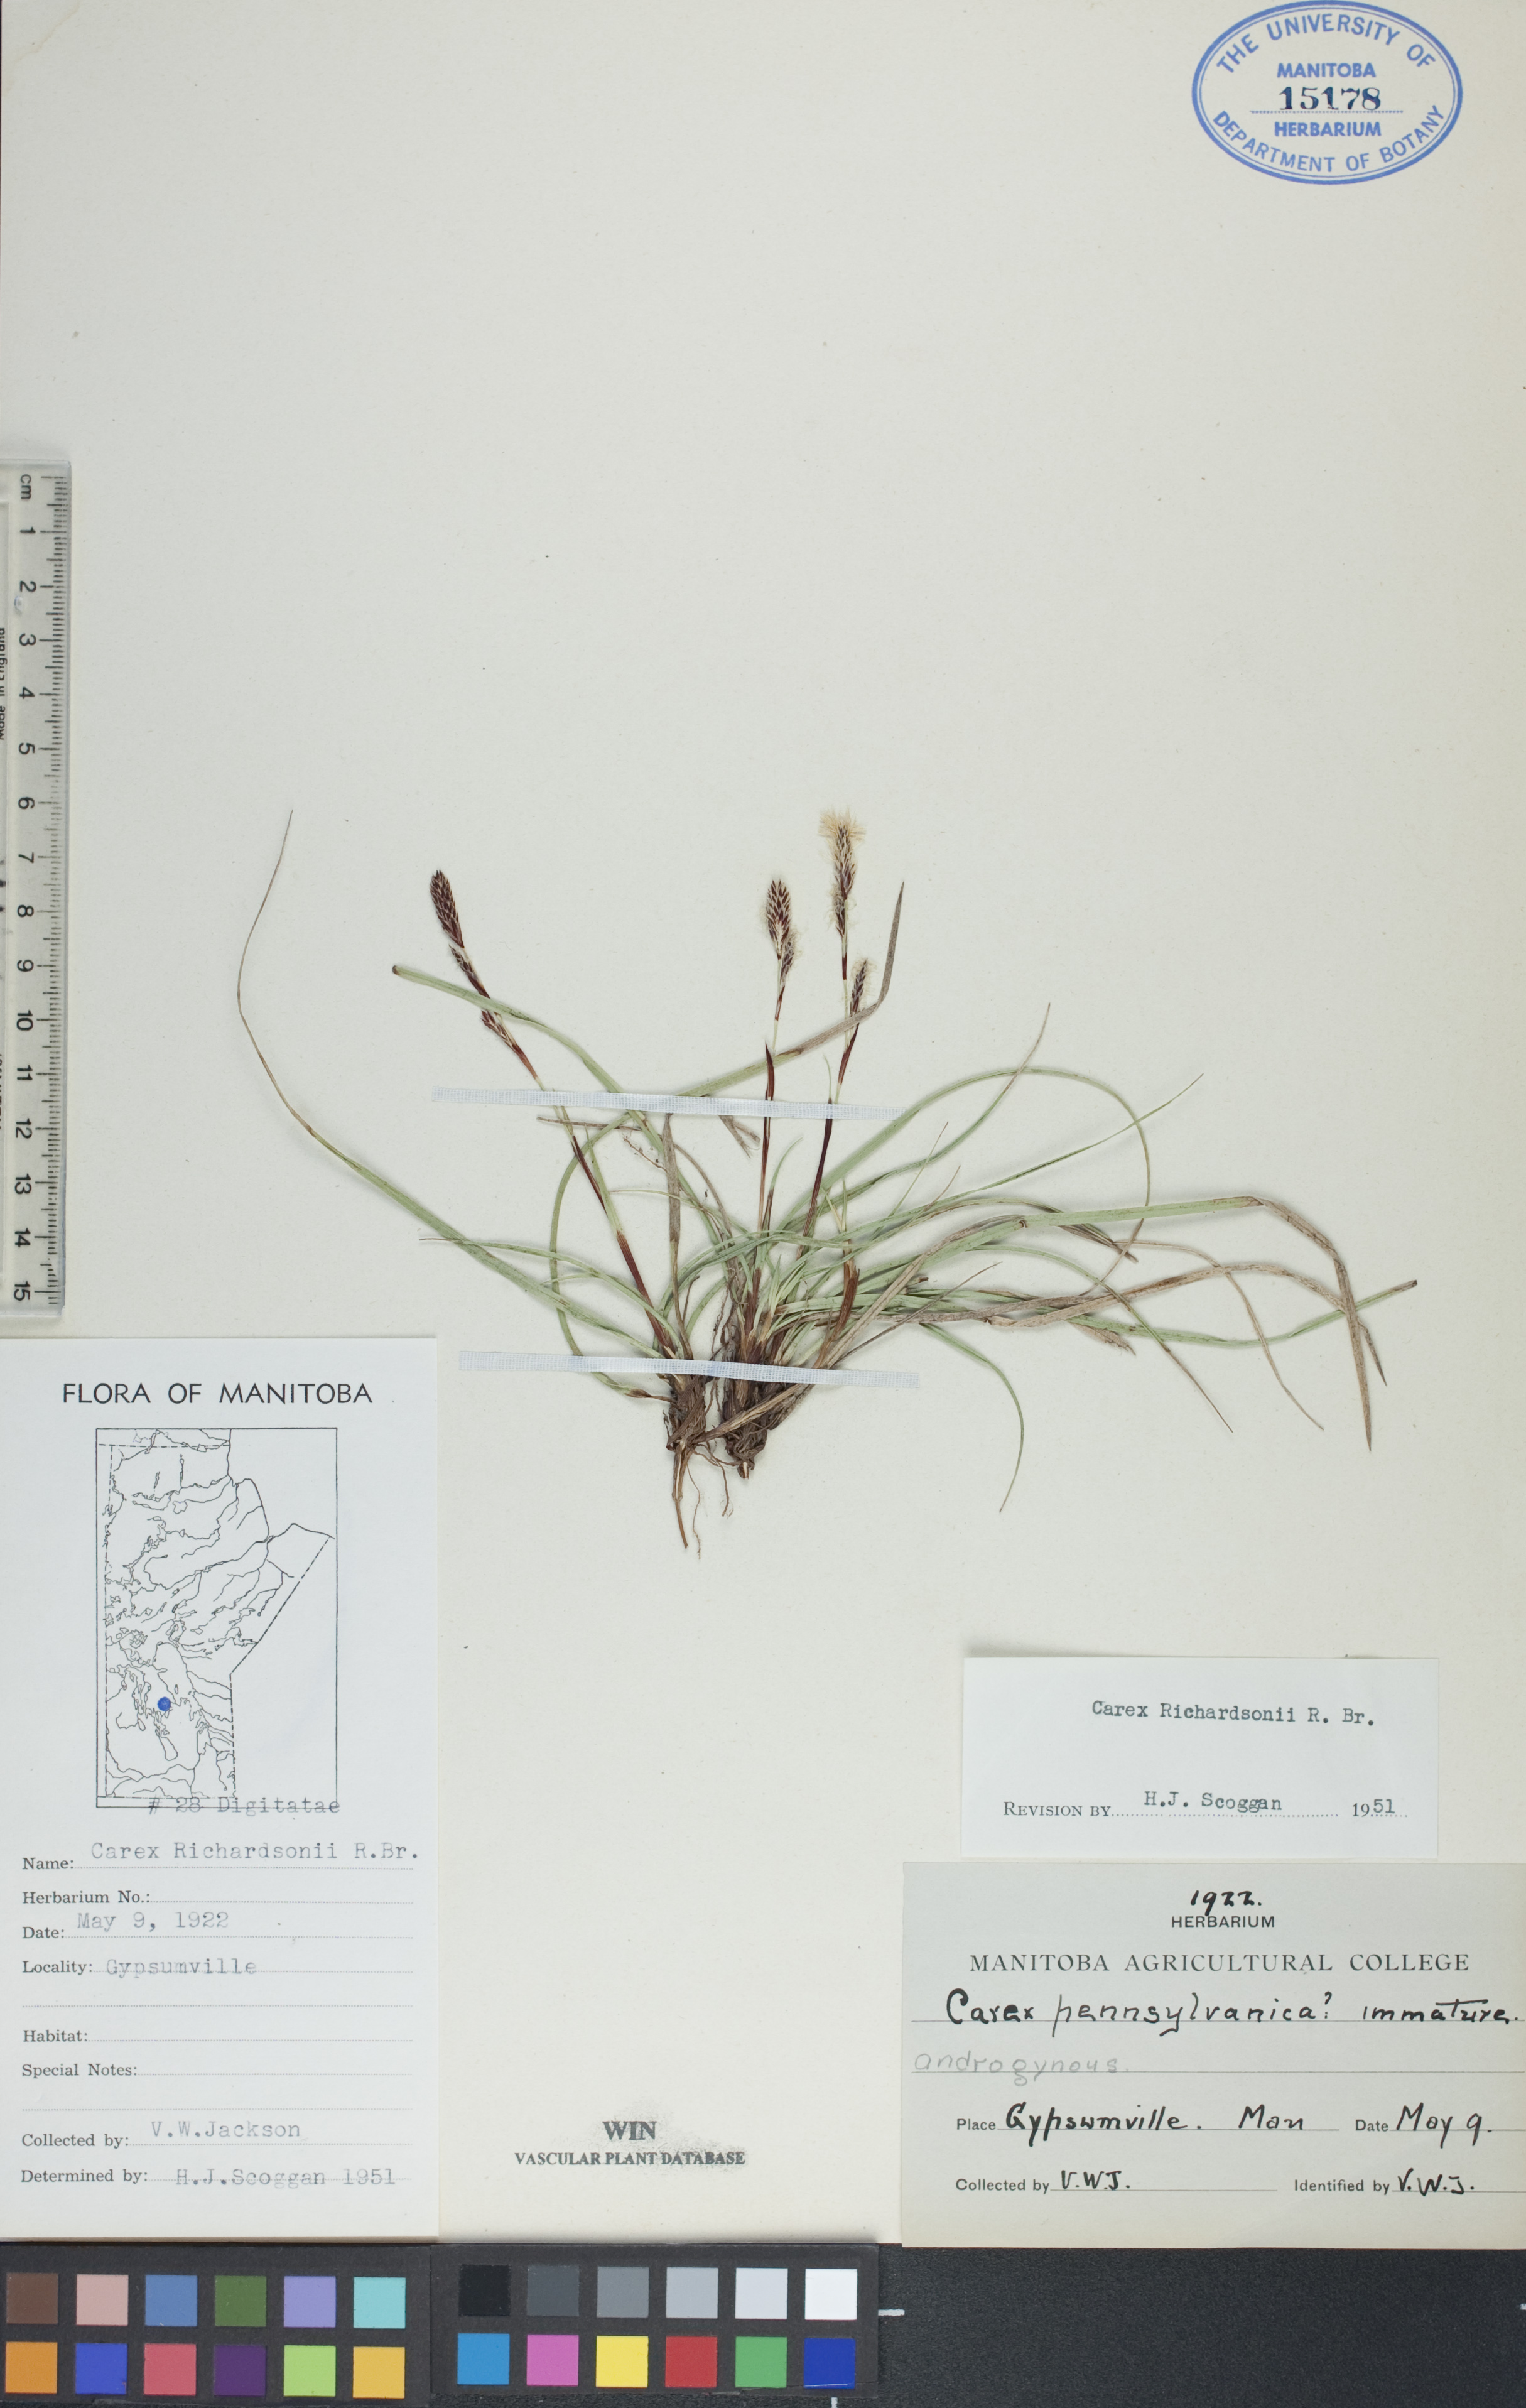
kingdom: Plantae
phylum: Tracheophyta
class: Liliopsida
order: Poales
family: Cyperaceae
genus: Carex
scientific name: Carex richardsonii
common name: Prairie hummock sedge
